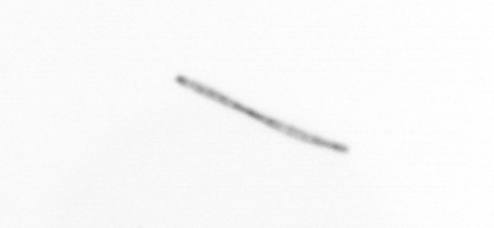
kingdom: Chromista
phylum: Ochrophyta
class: Bacillariophyceae
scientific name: Bacillariophyceae
